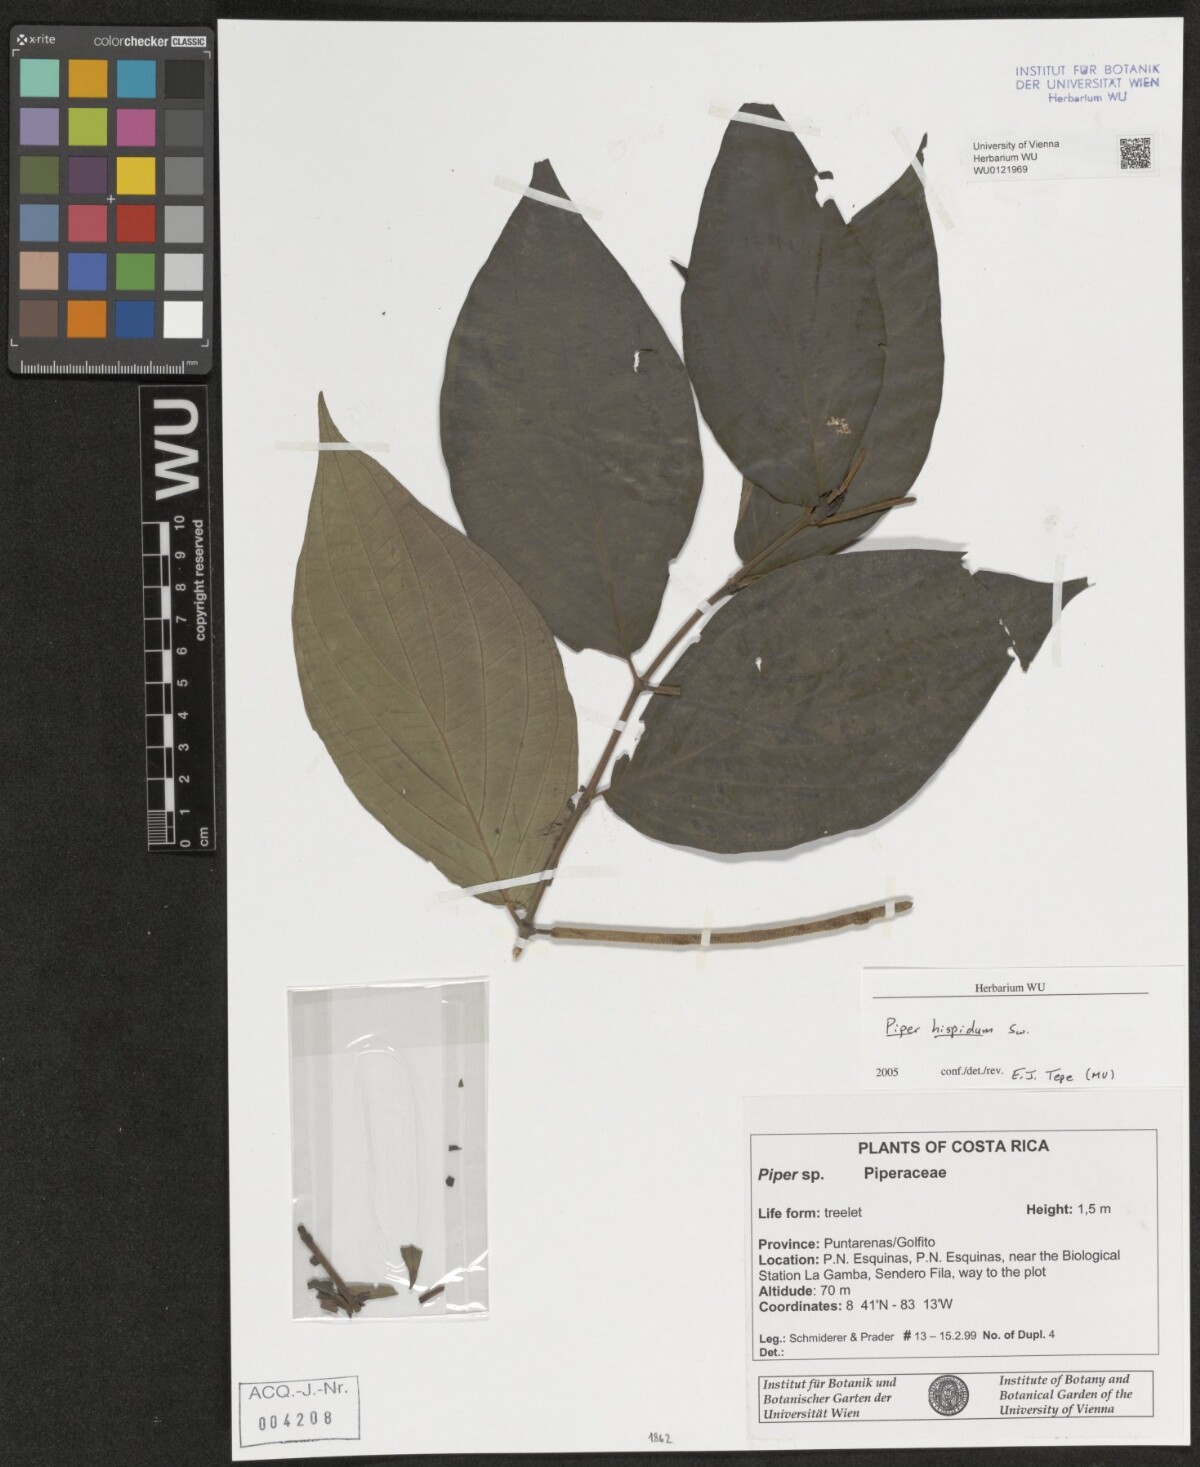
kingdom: Plantae
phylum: Tracheophyta
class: Magnoliopsida
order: Piperales
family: Piperaceae
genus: Piper
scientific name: Piper hispidum
